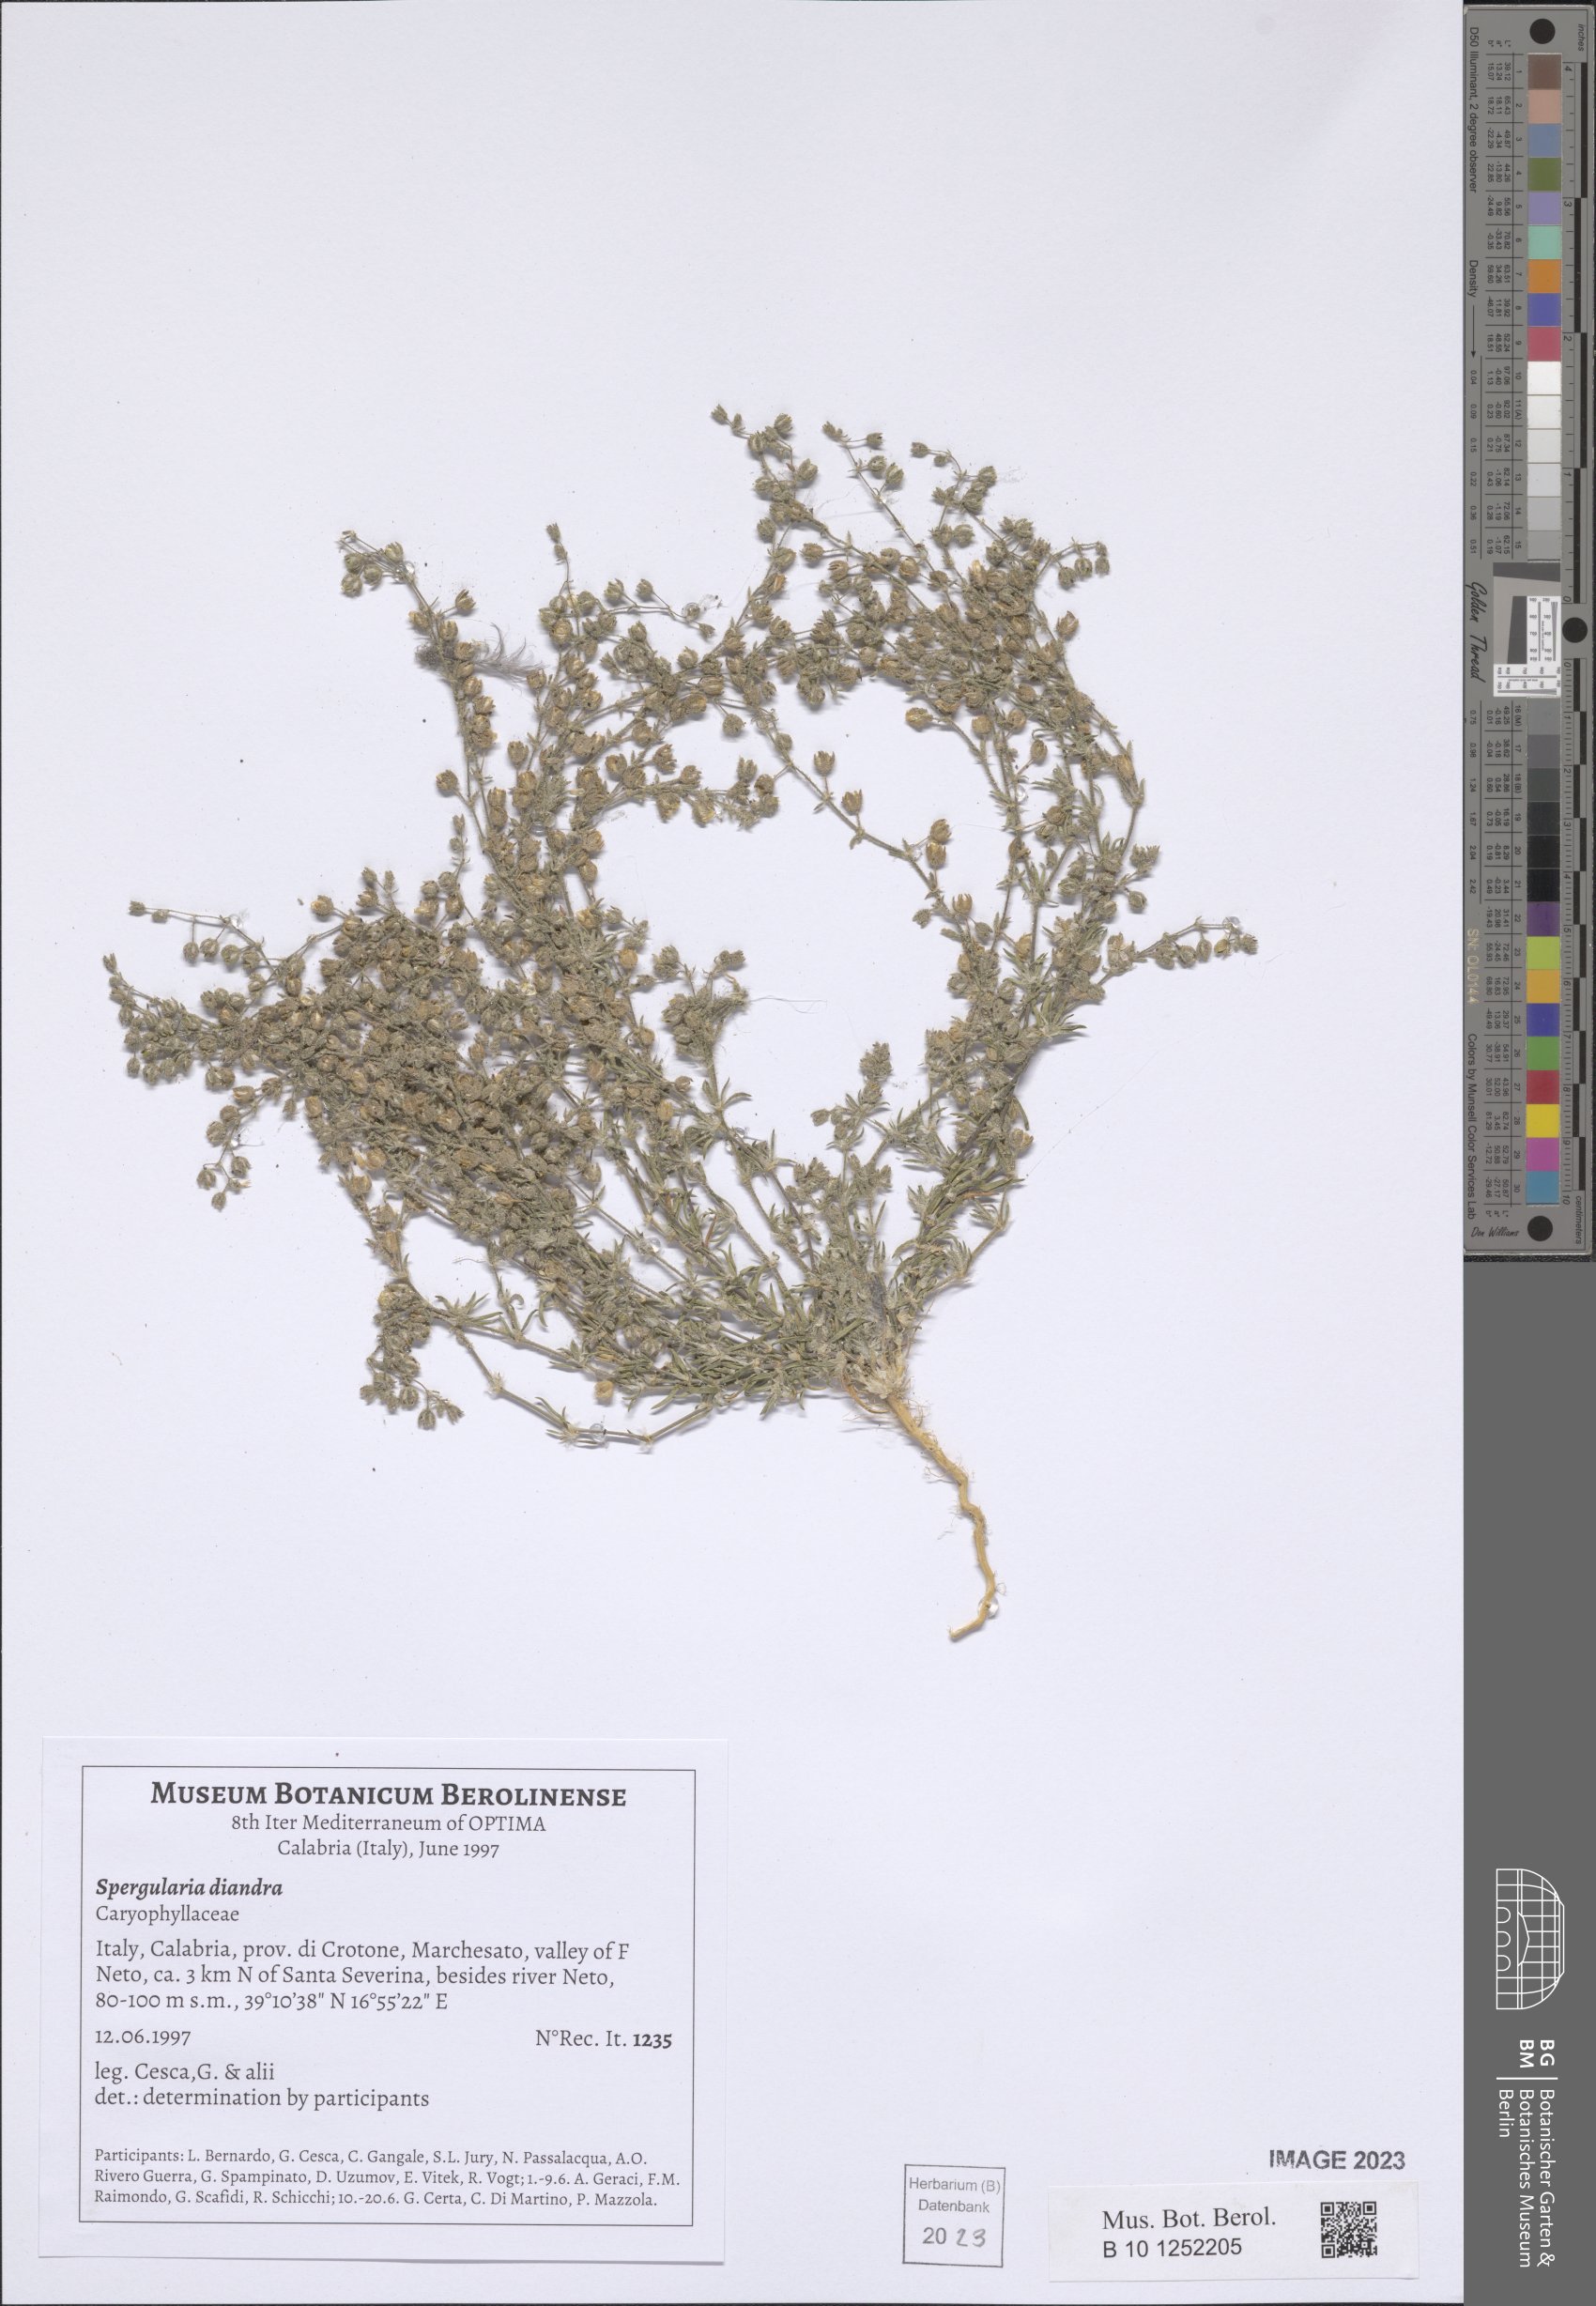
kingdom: Plantae
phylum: Tracheophyta
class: Magnoliopsida
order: Caryophyllales
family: Caryophyllaceae
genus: Spergularia
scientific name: Spergularia diandra
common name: Alkali sand-spurrey
